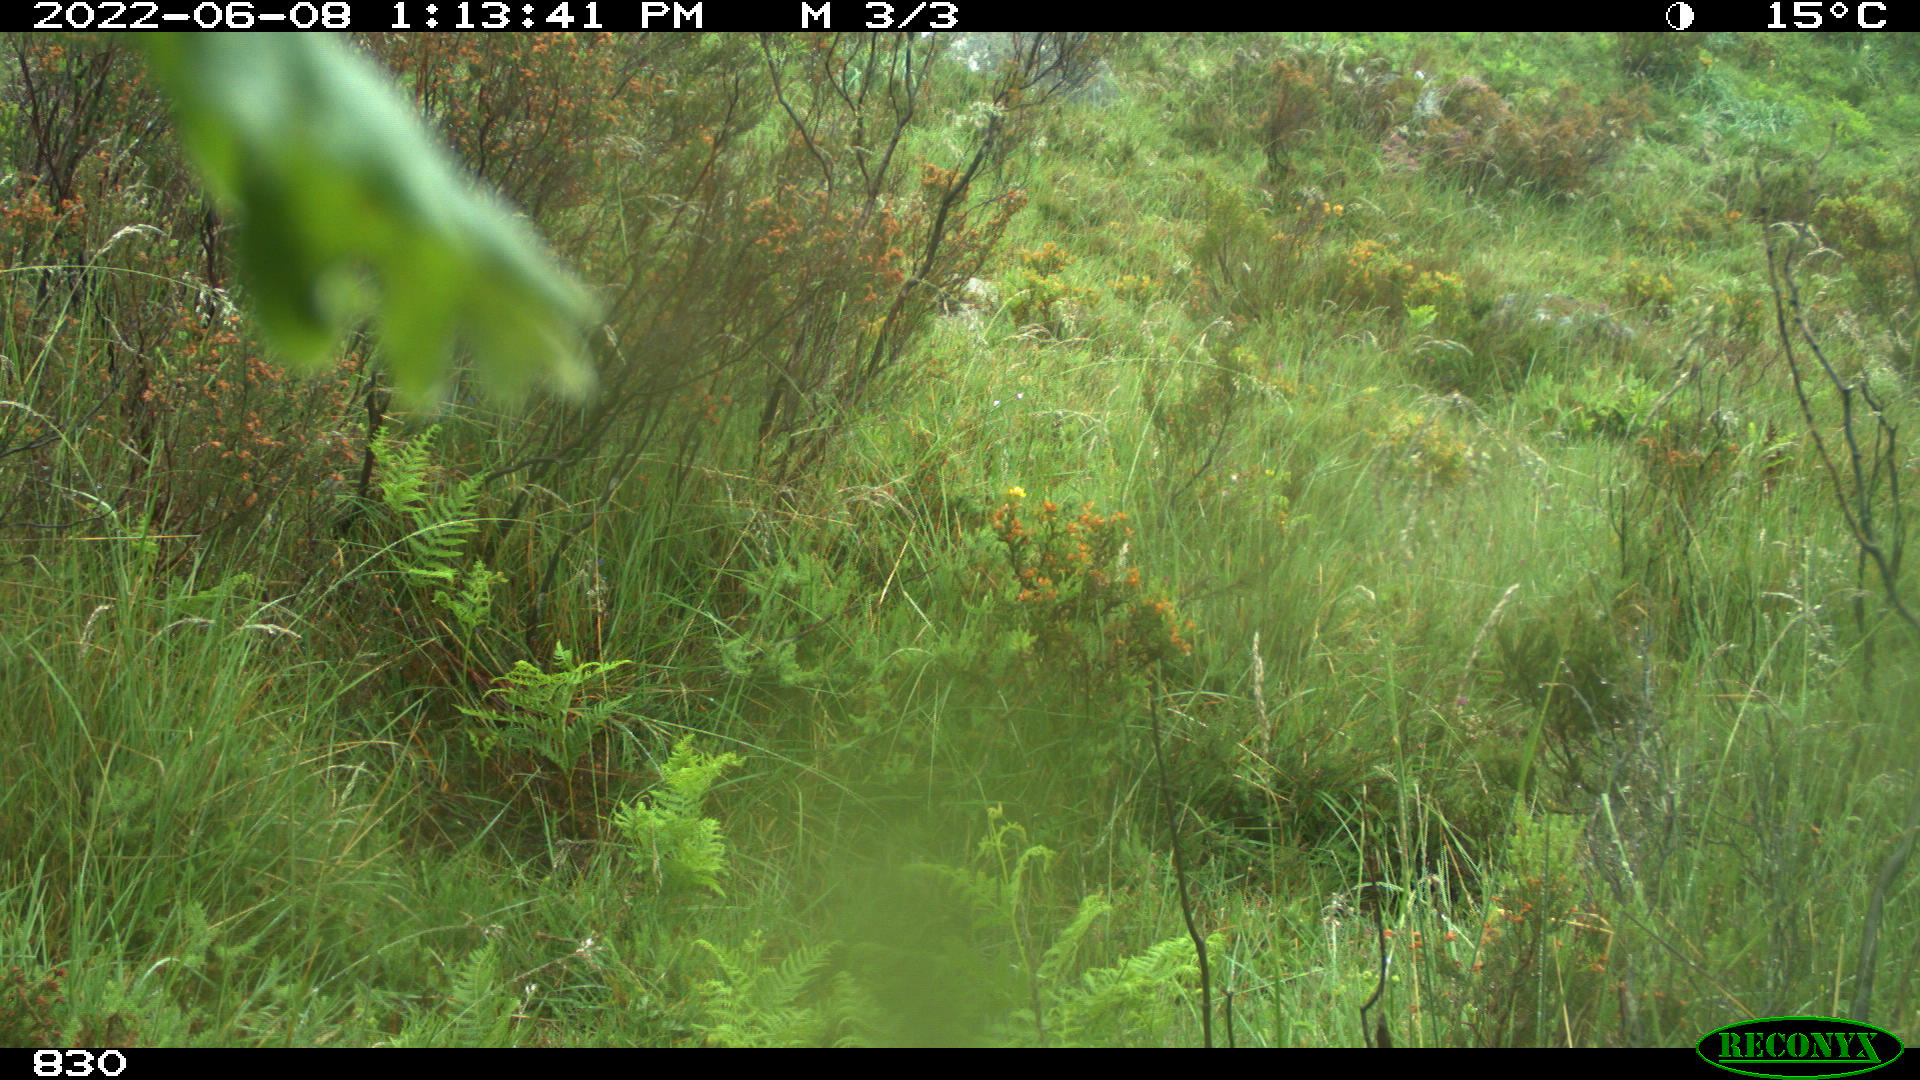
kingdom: Animalia
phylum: Chordata
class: Mammalia
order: Artiodactyla
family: Bovidae
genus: Bos
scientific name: Bos taurus
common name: Domesticated cattle
